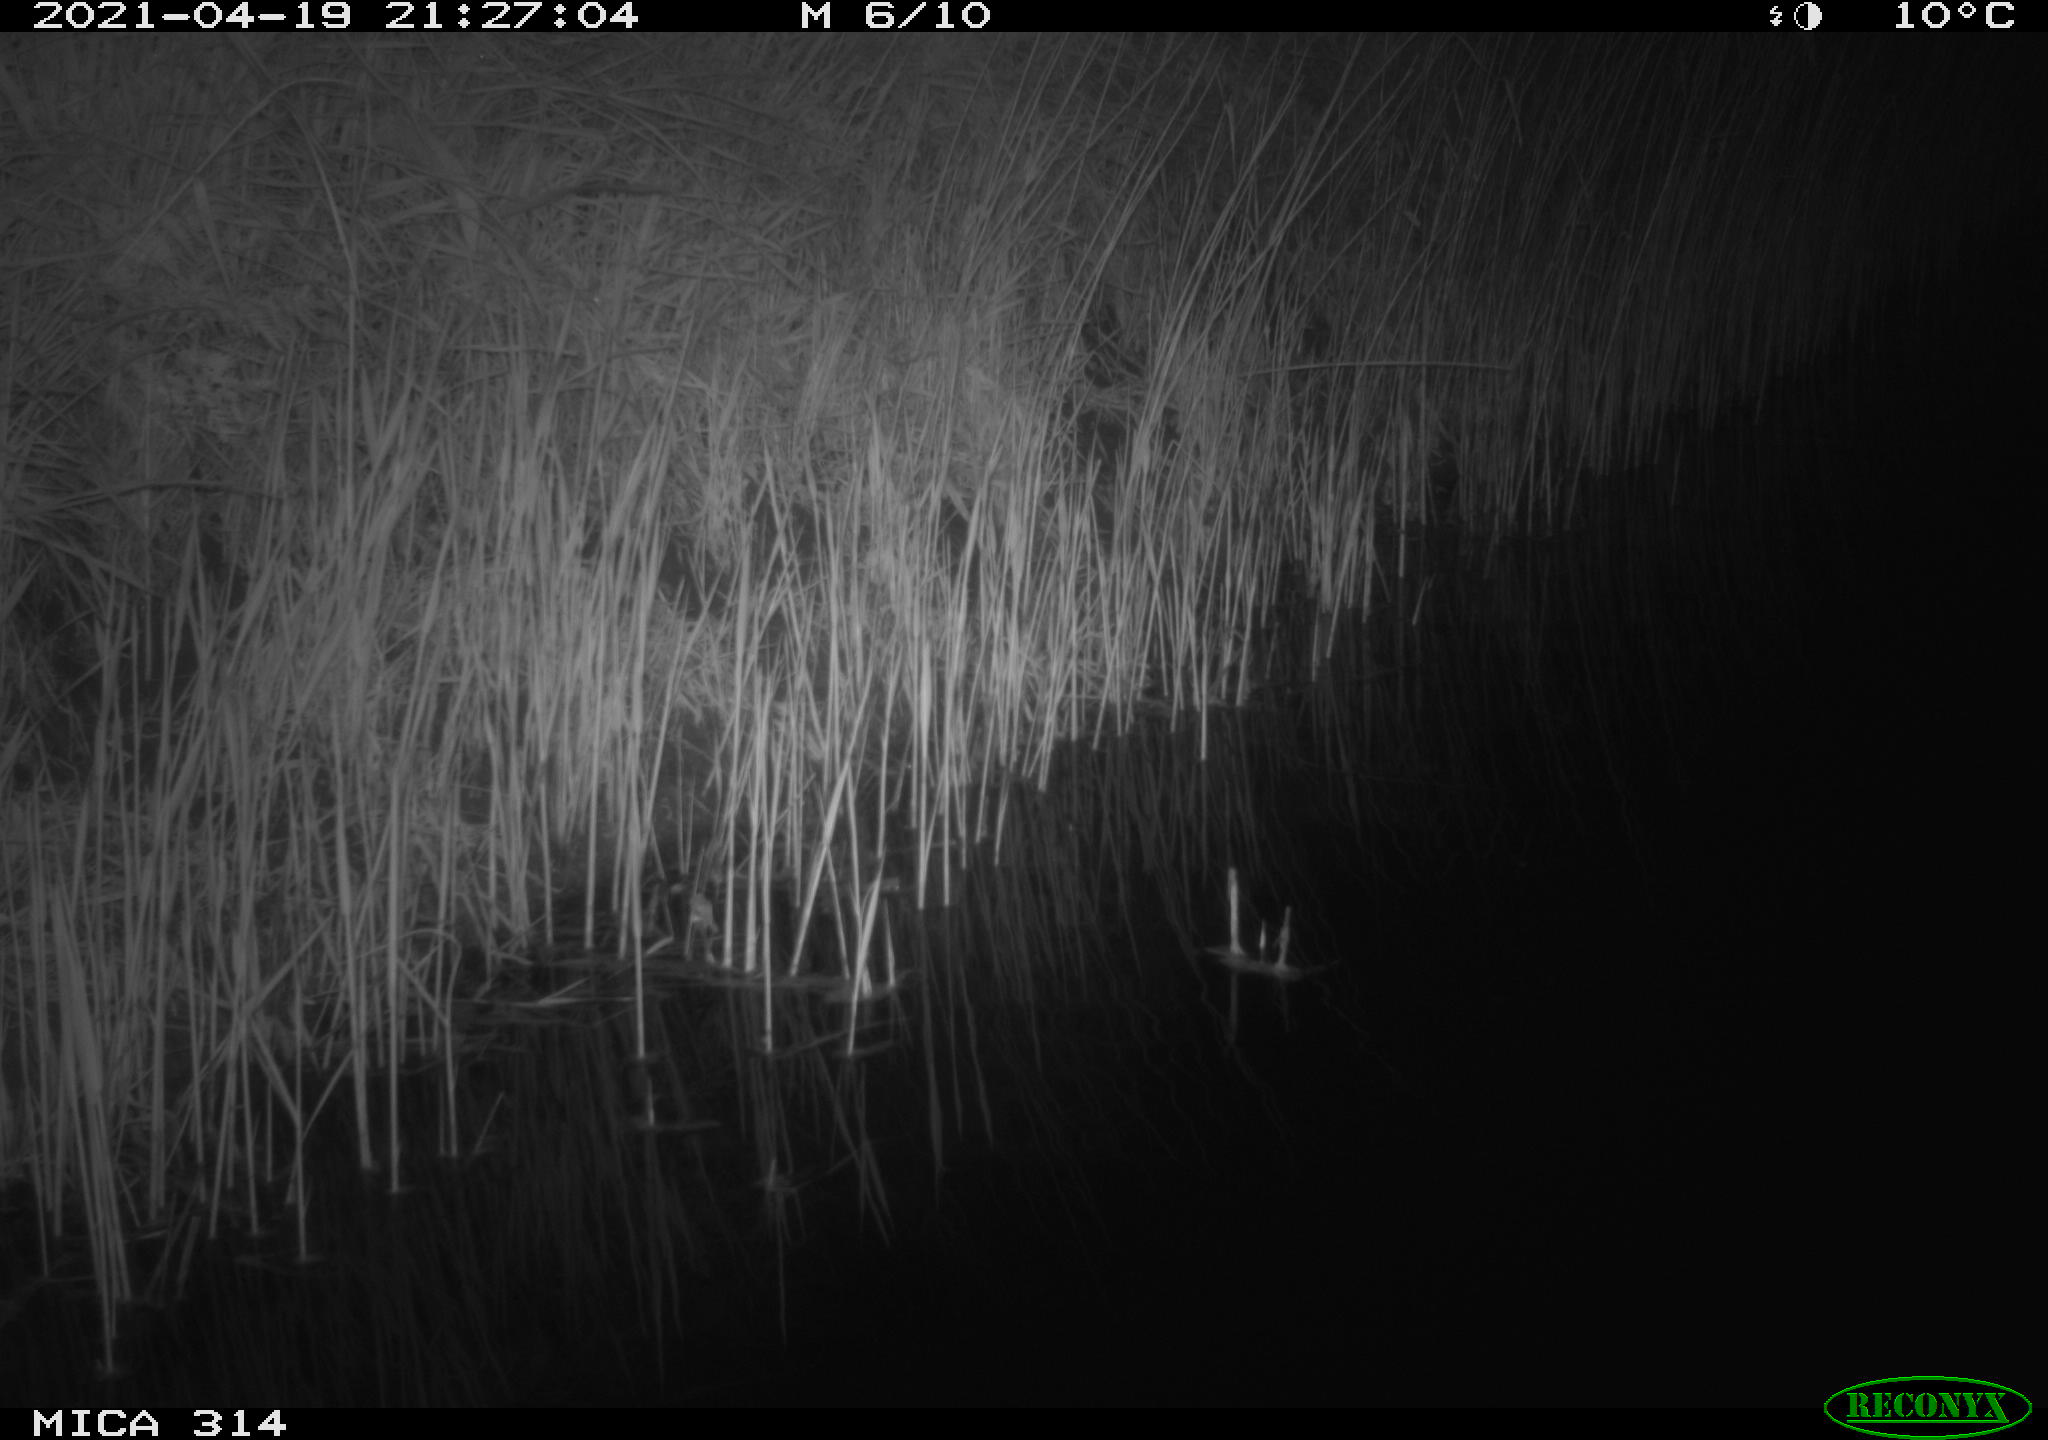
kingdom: Animalia
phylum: Chordata
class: Mammalia
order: Rodentia
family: Muridae
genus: Rattus
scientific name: Rattus norvegicus
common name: Brown rat
